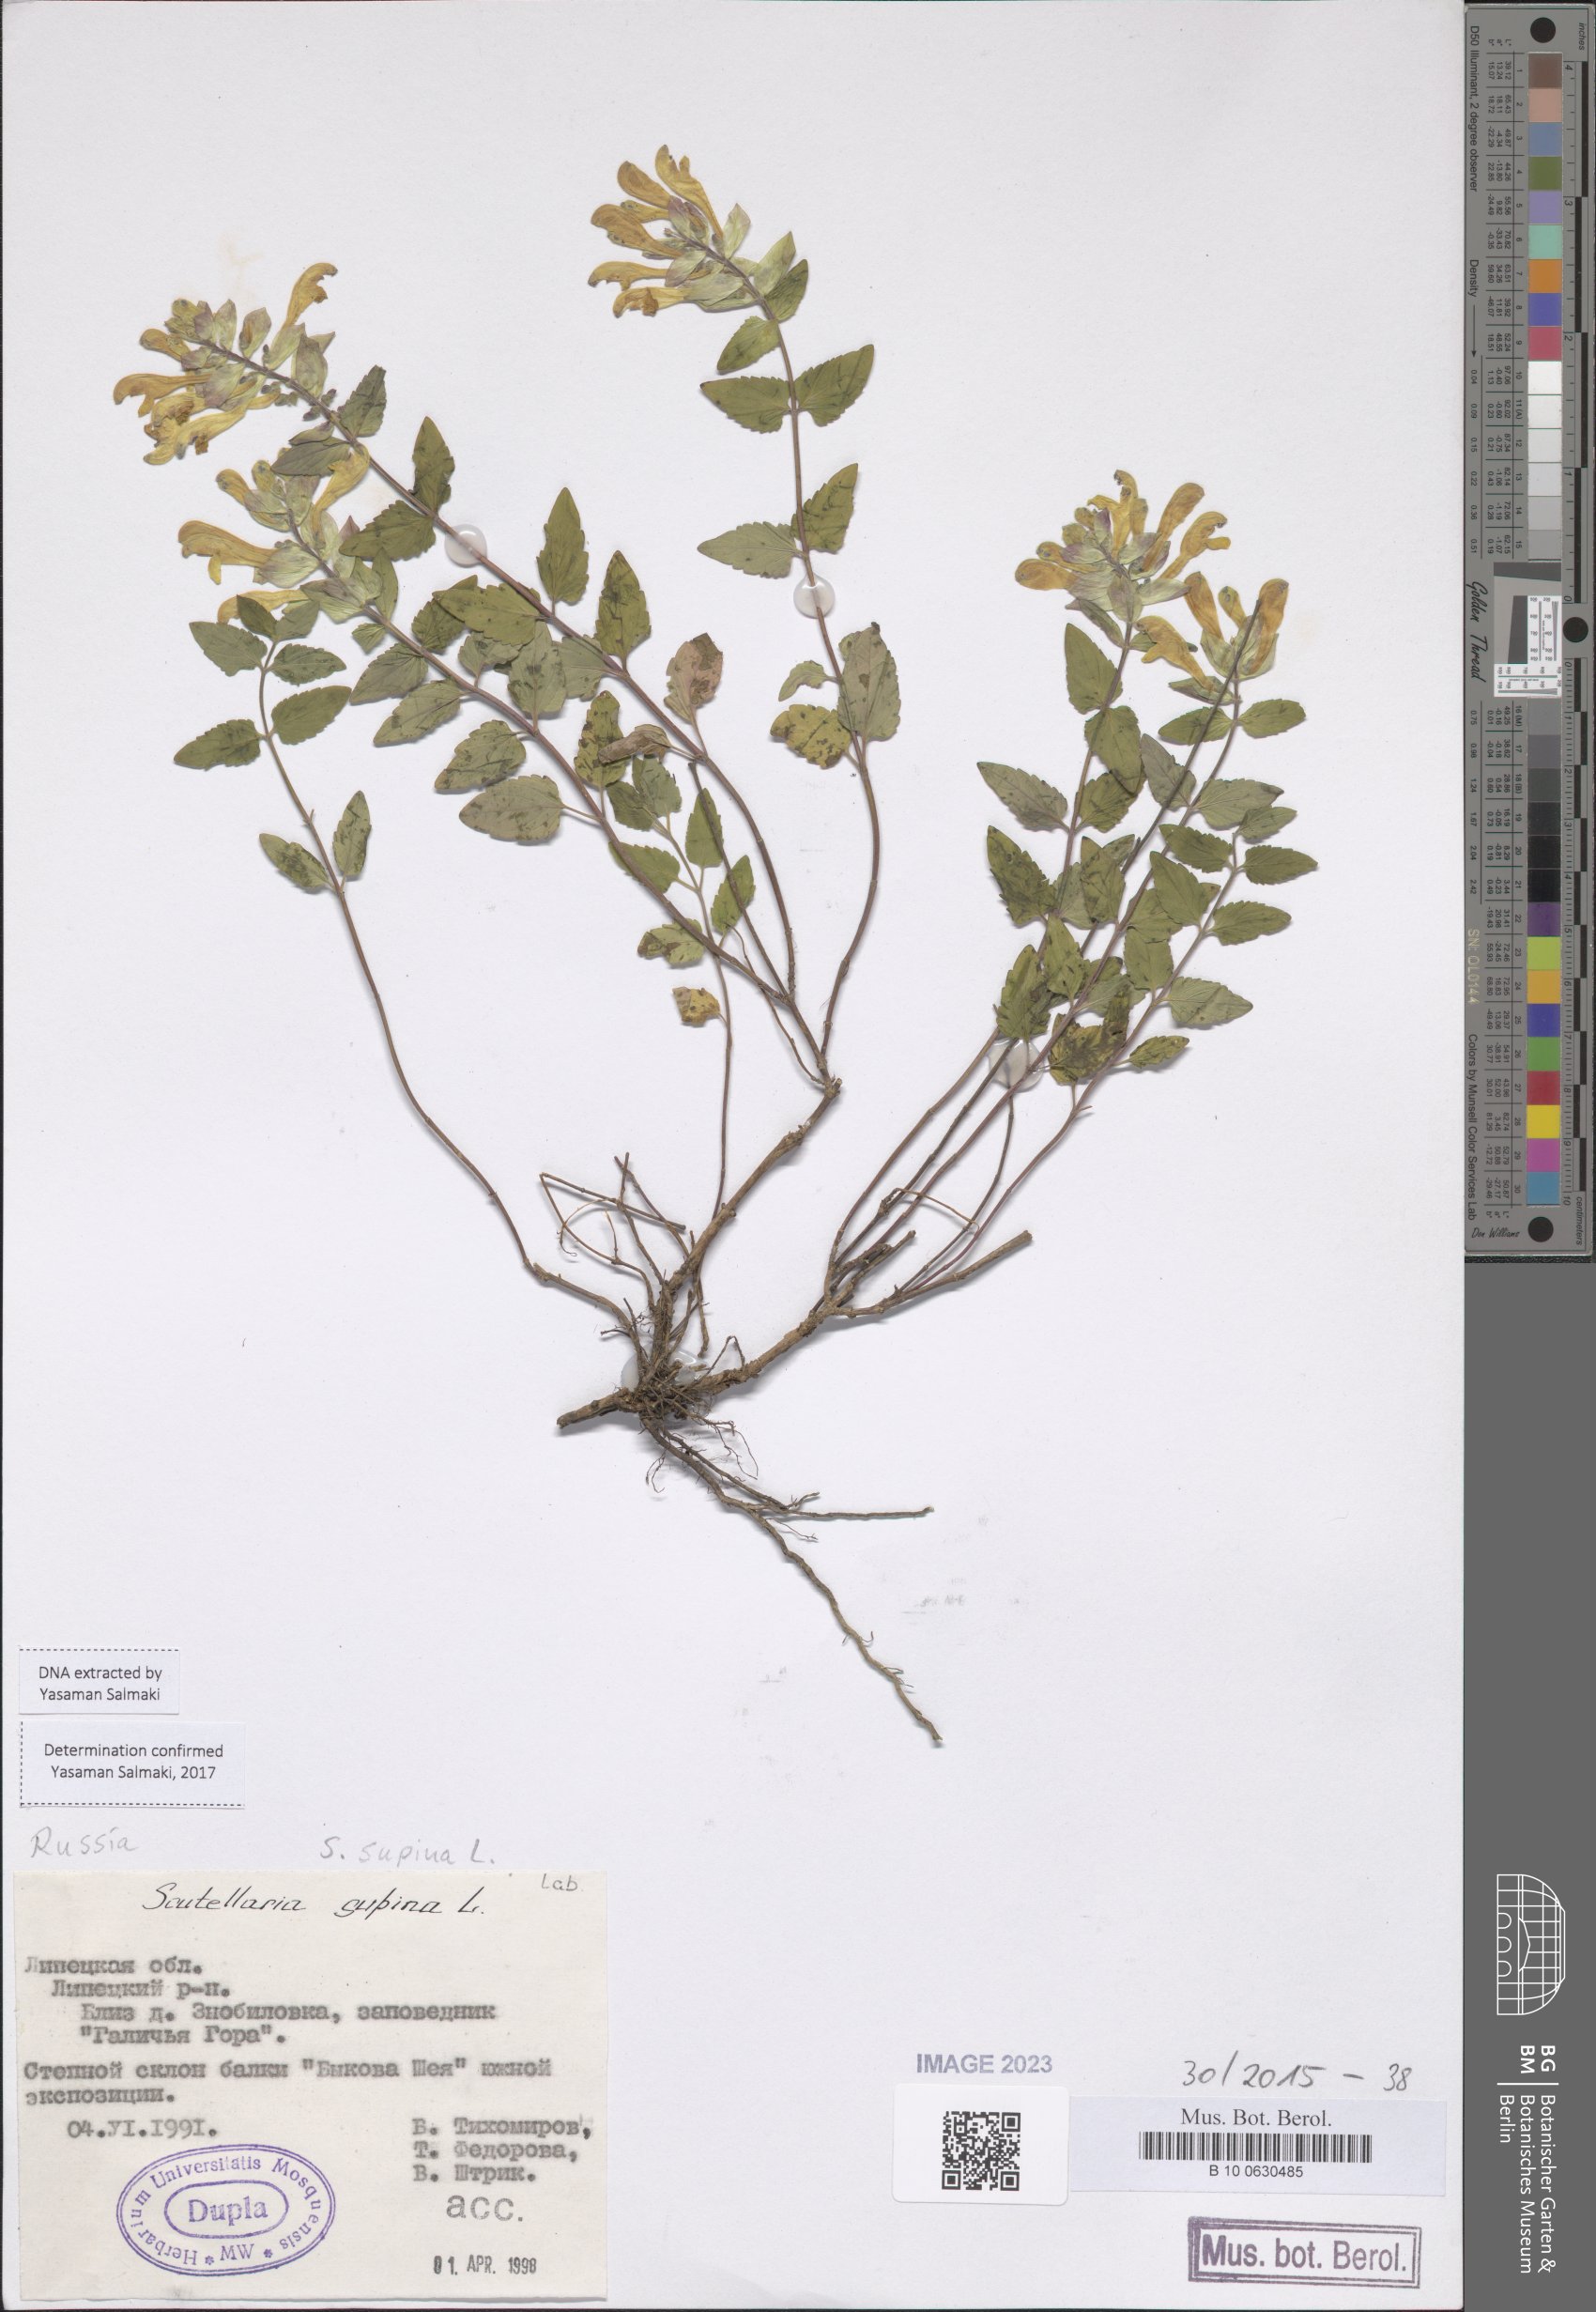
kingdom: Plantae
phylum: Tracheophyta
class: Magnoliopsida
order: Lamiales
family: Lamiaceae
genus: Scutellaria
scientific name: Scutellaria supina
